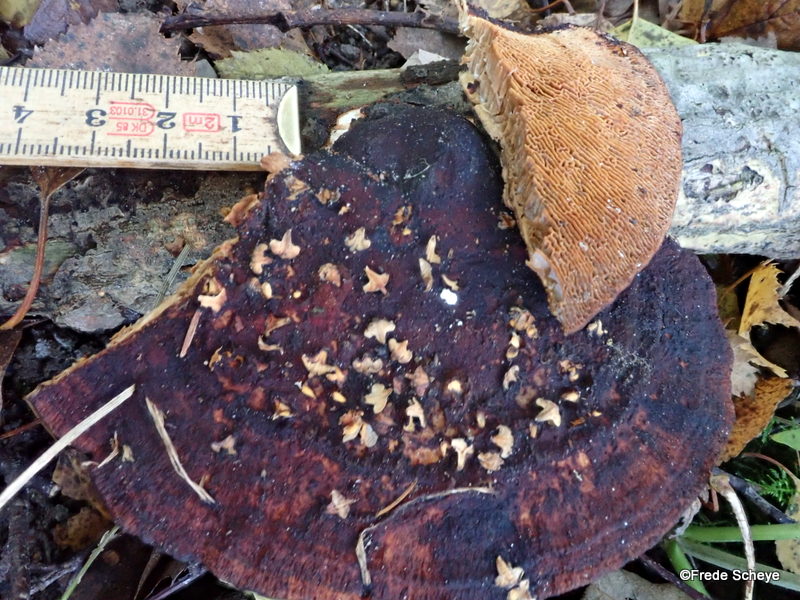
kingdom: Fungi
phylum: Basidiomycota
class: Agaricomycetes
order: Polyporales
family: Polyporaceae
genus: Daedaleopsis
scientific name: Daedaleopsis confragosa
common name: rødmende læderporesvamp
